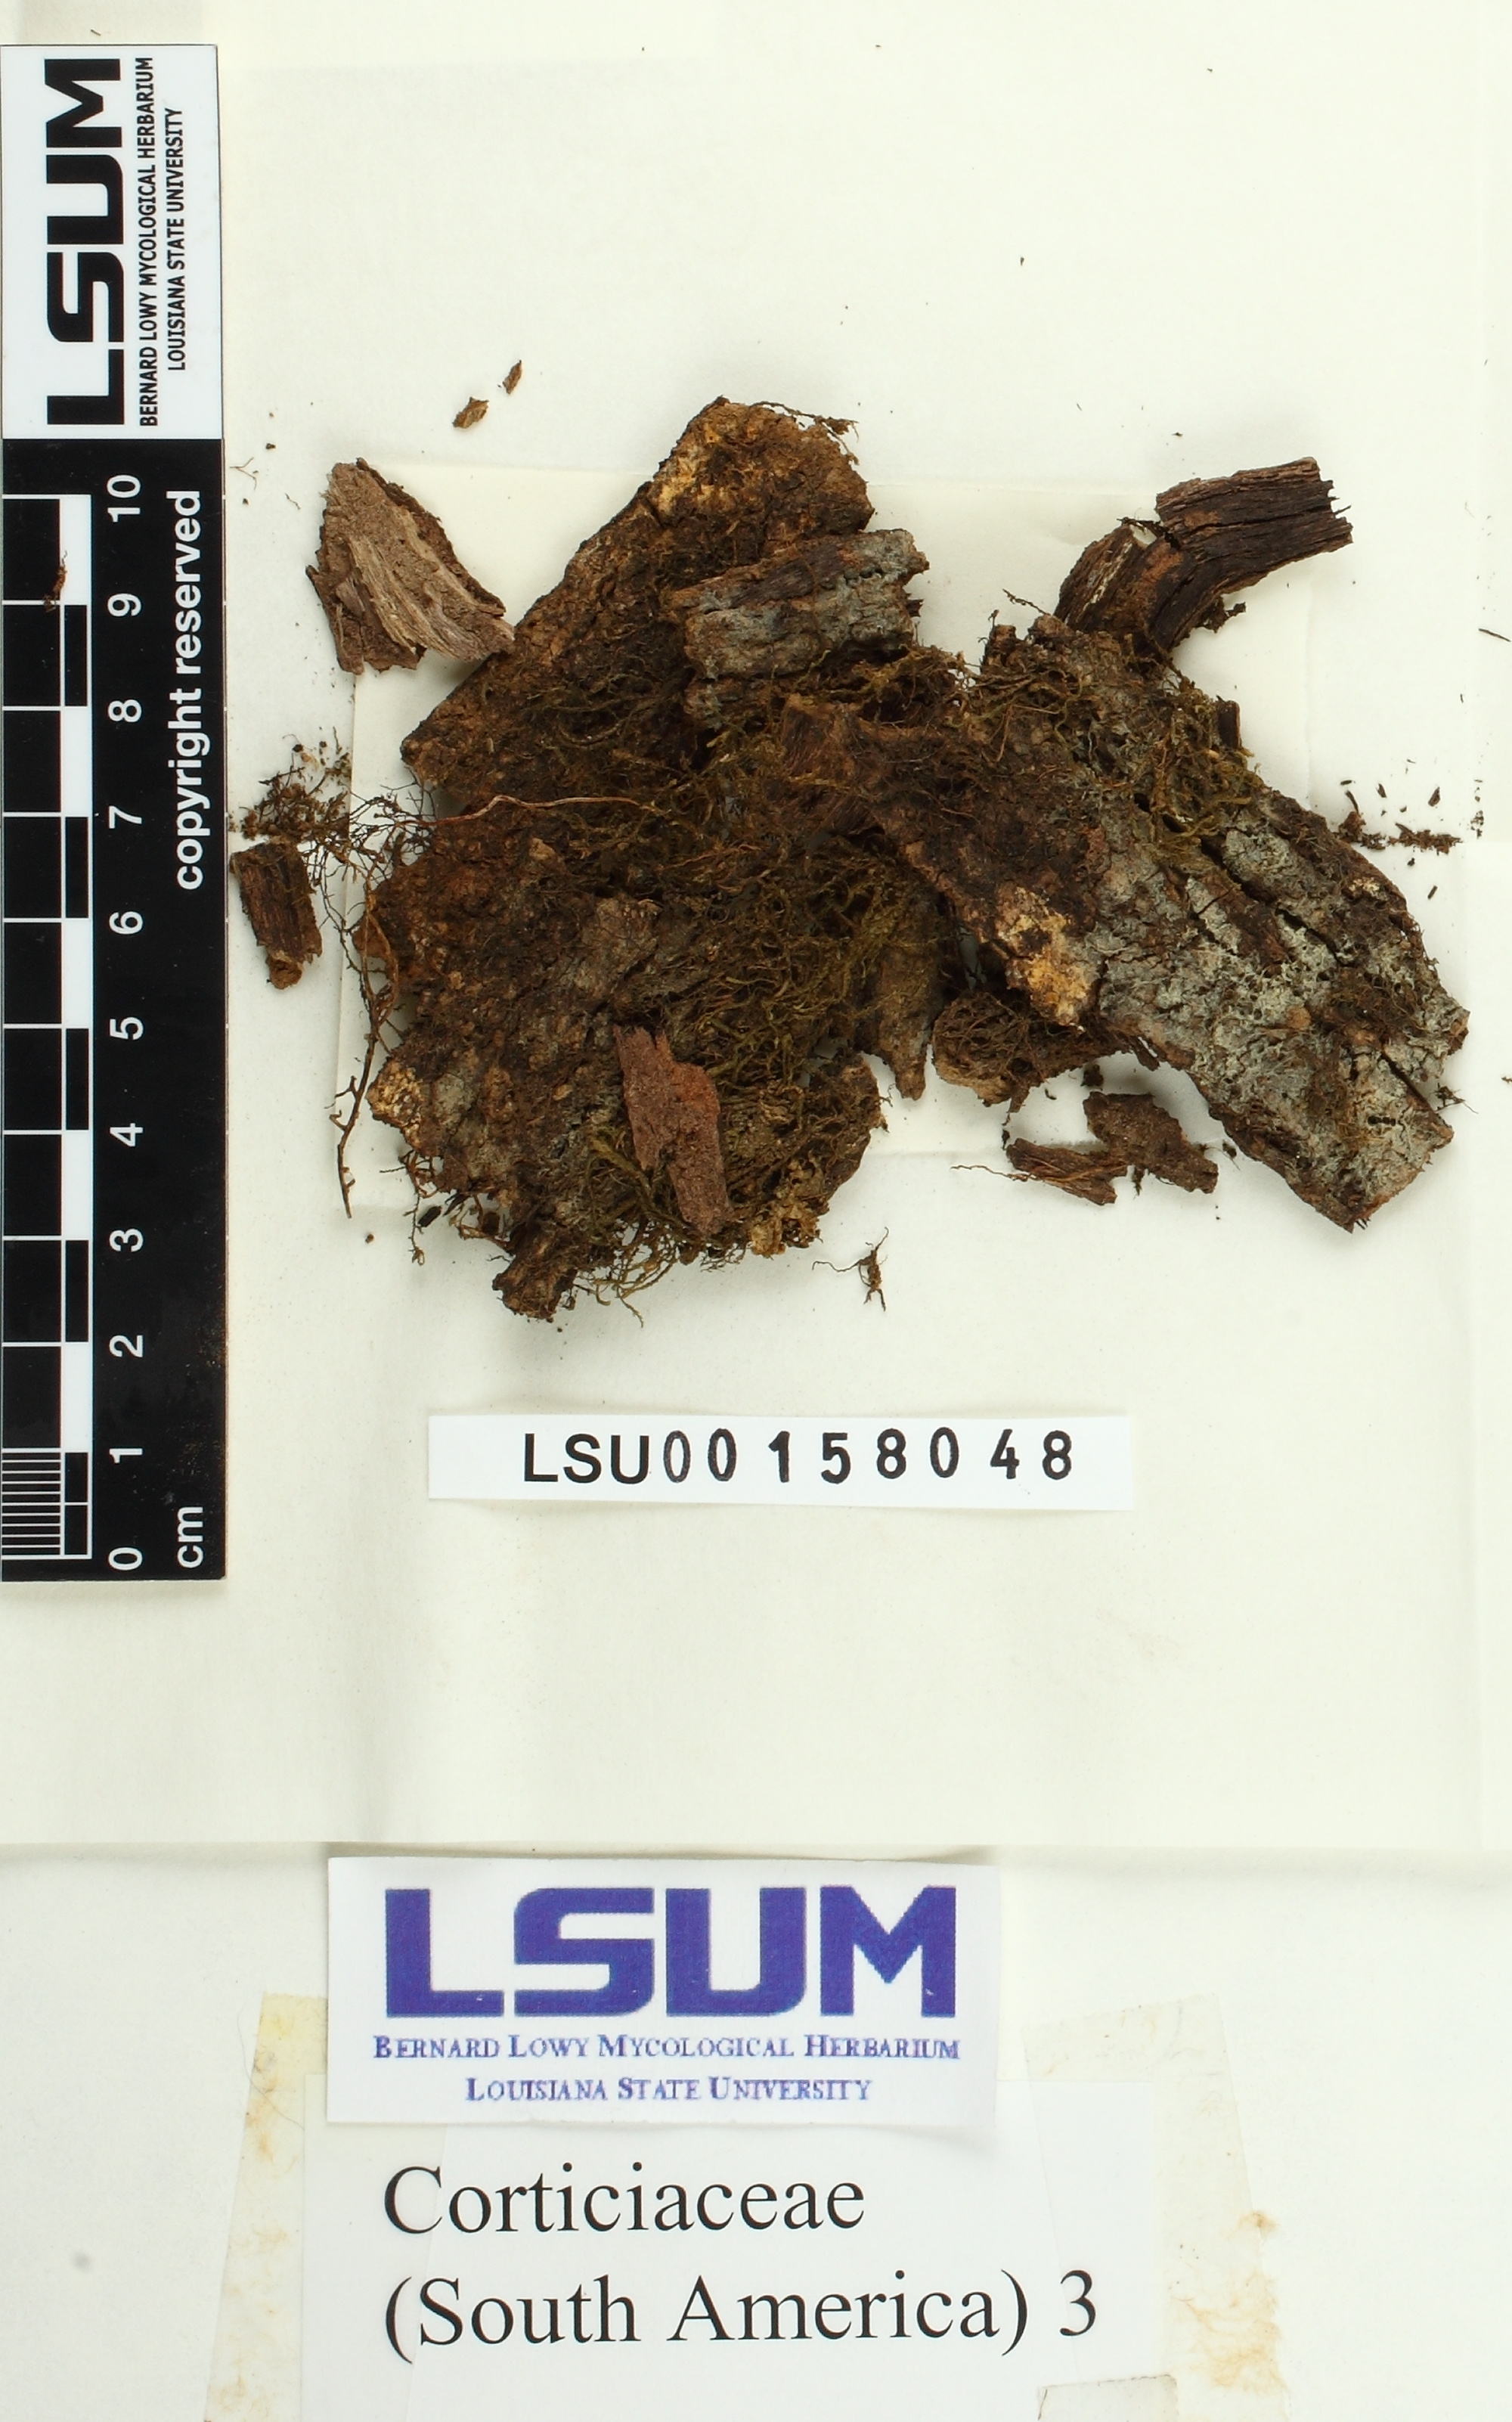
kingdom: Fungi
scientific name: Fungi
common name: Fungi
